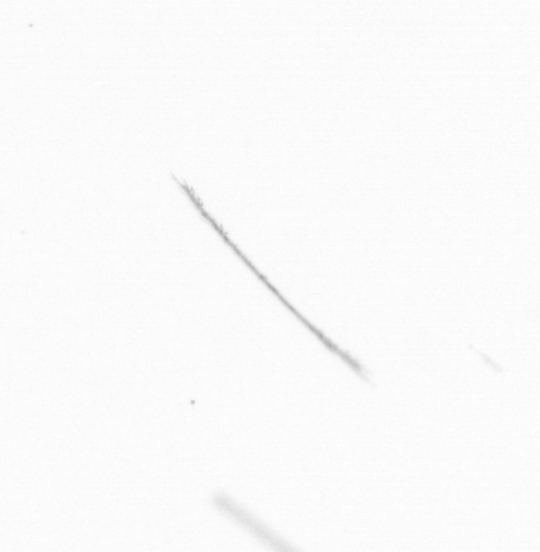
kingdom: Chromista
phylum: Ochrophyta
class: Bacillariophyceae
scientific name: Bacillariophyceae
